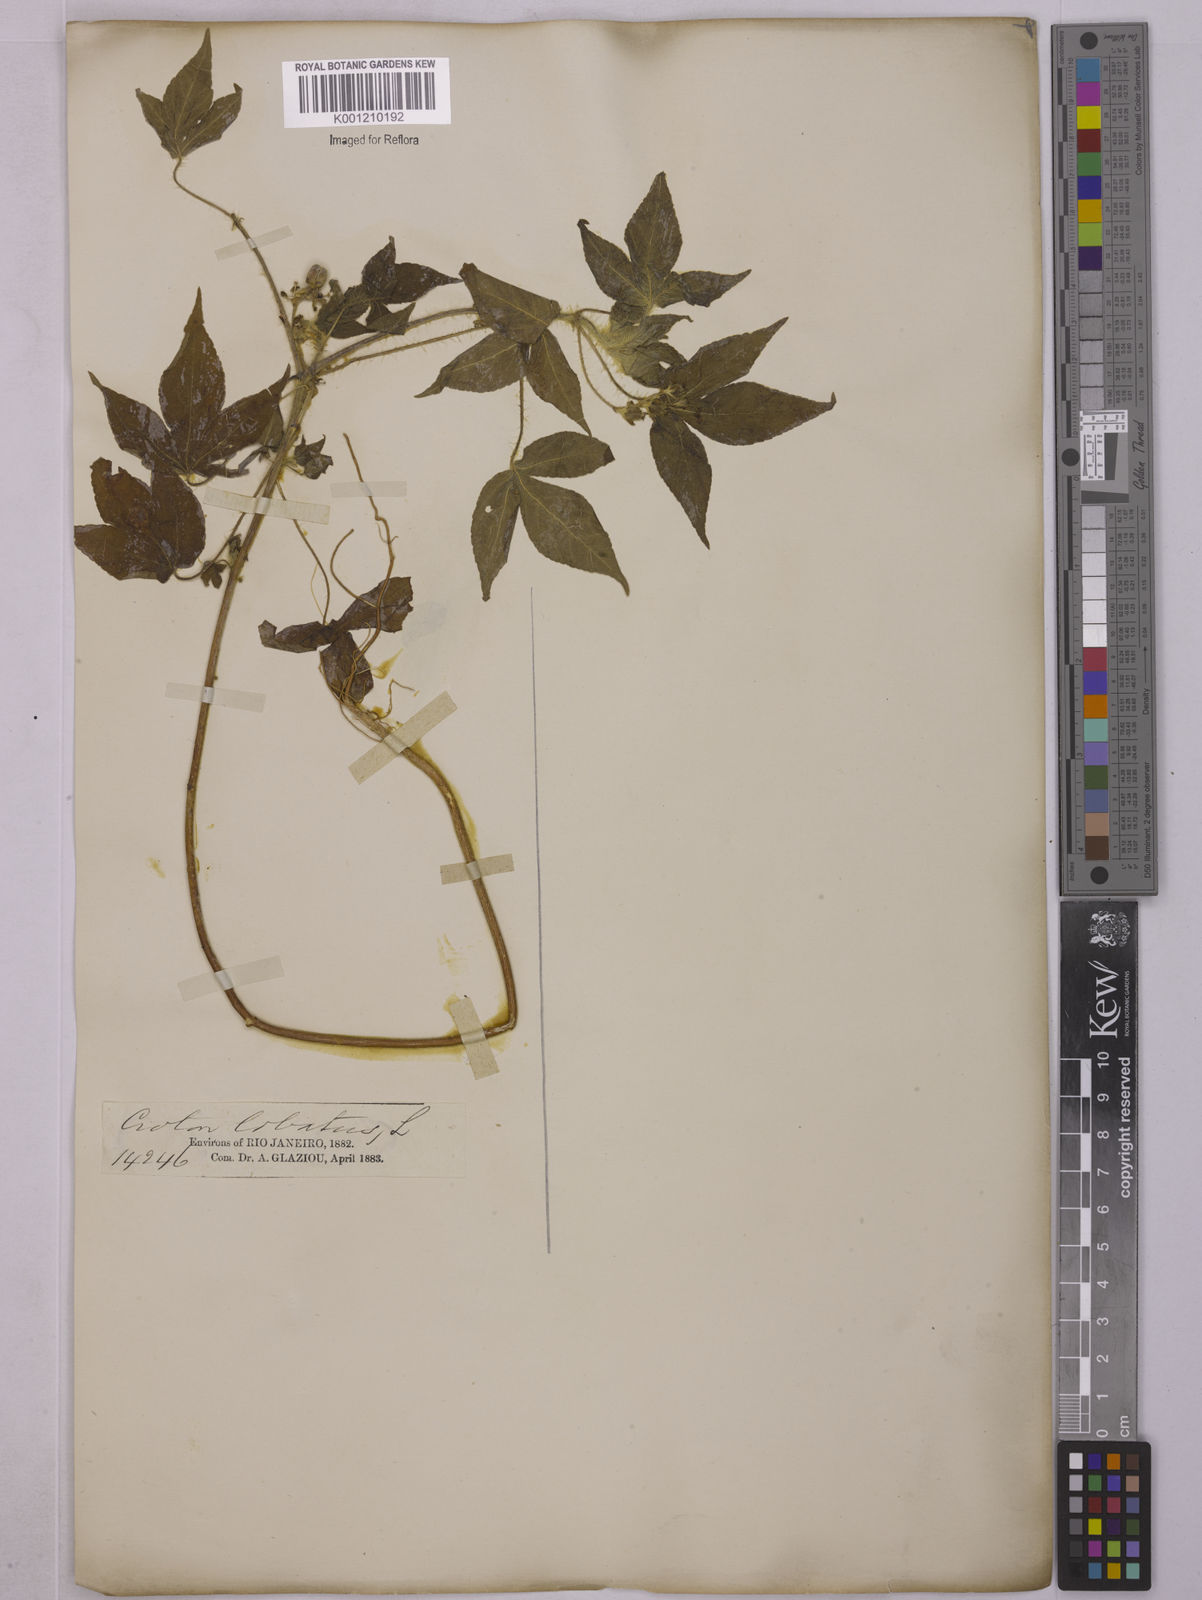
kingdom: Plantae
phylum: Tracheophyta
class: Magnoliopsida
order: Malpighiales
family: Euphorbiaceae
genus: Astraea
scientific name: Astraea lobata
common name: Lobed croton
